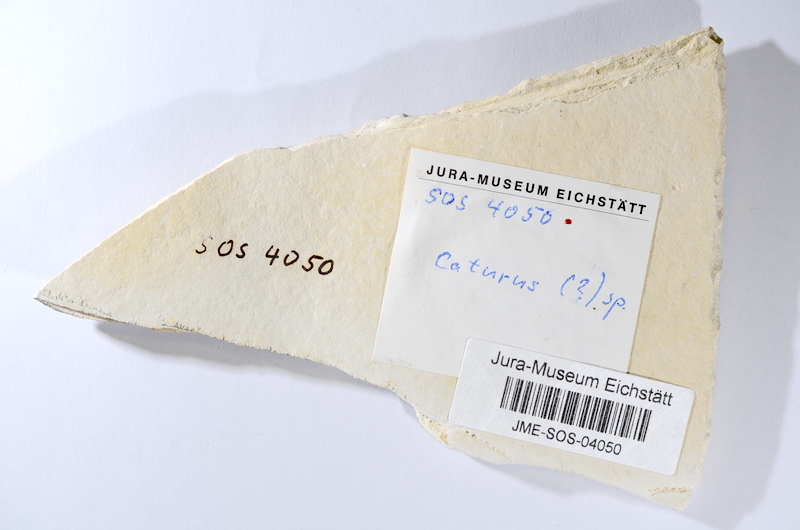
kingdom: Animalia
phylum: Chordata
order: Amiiformes
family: Caturidae
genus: Caturus
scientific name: Caturus
